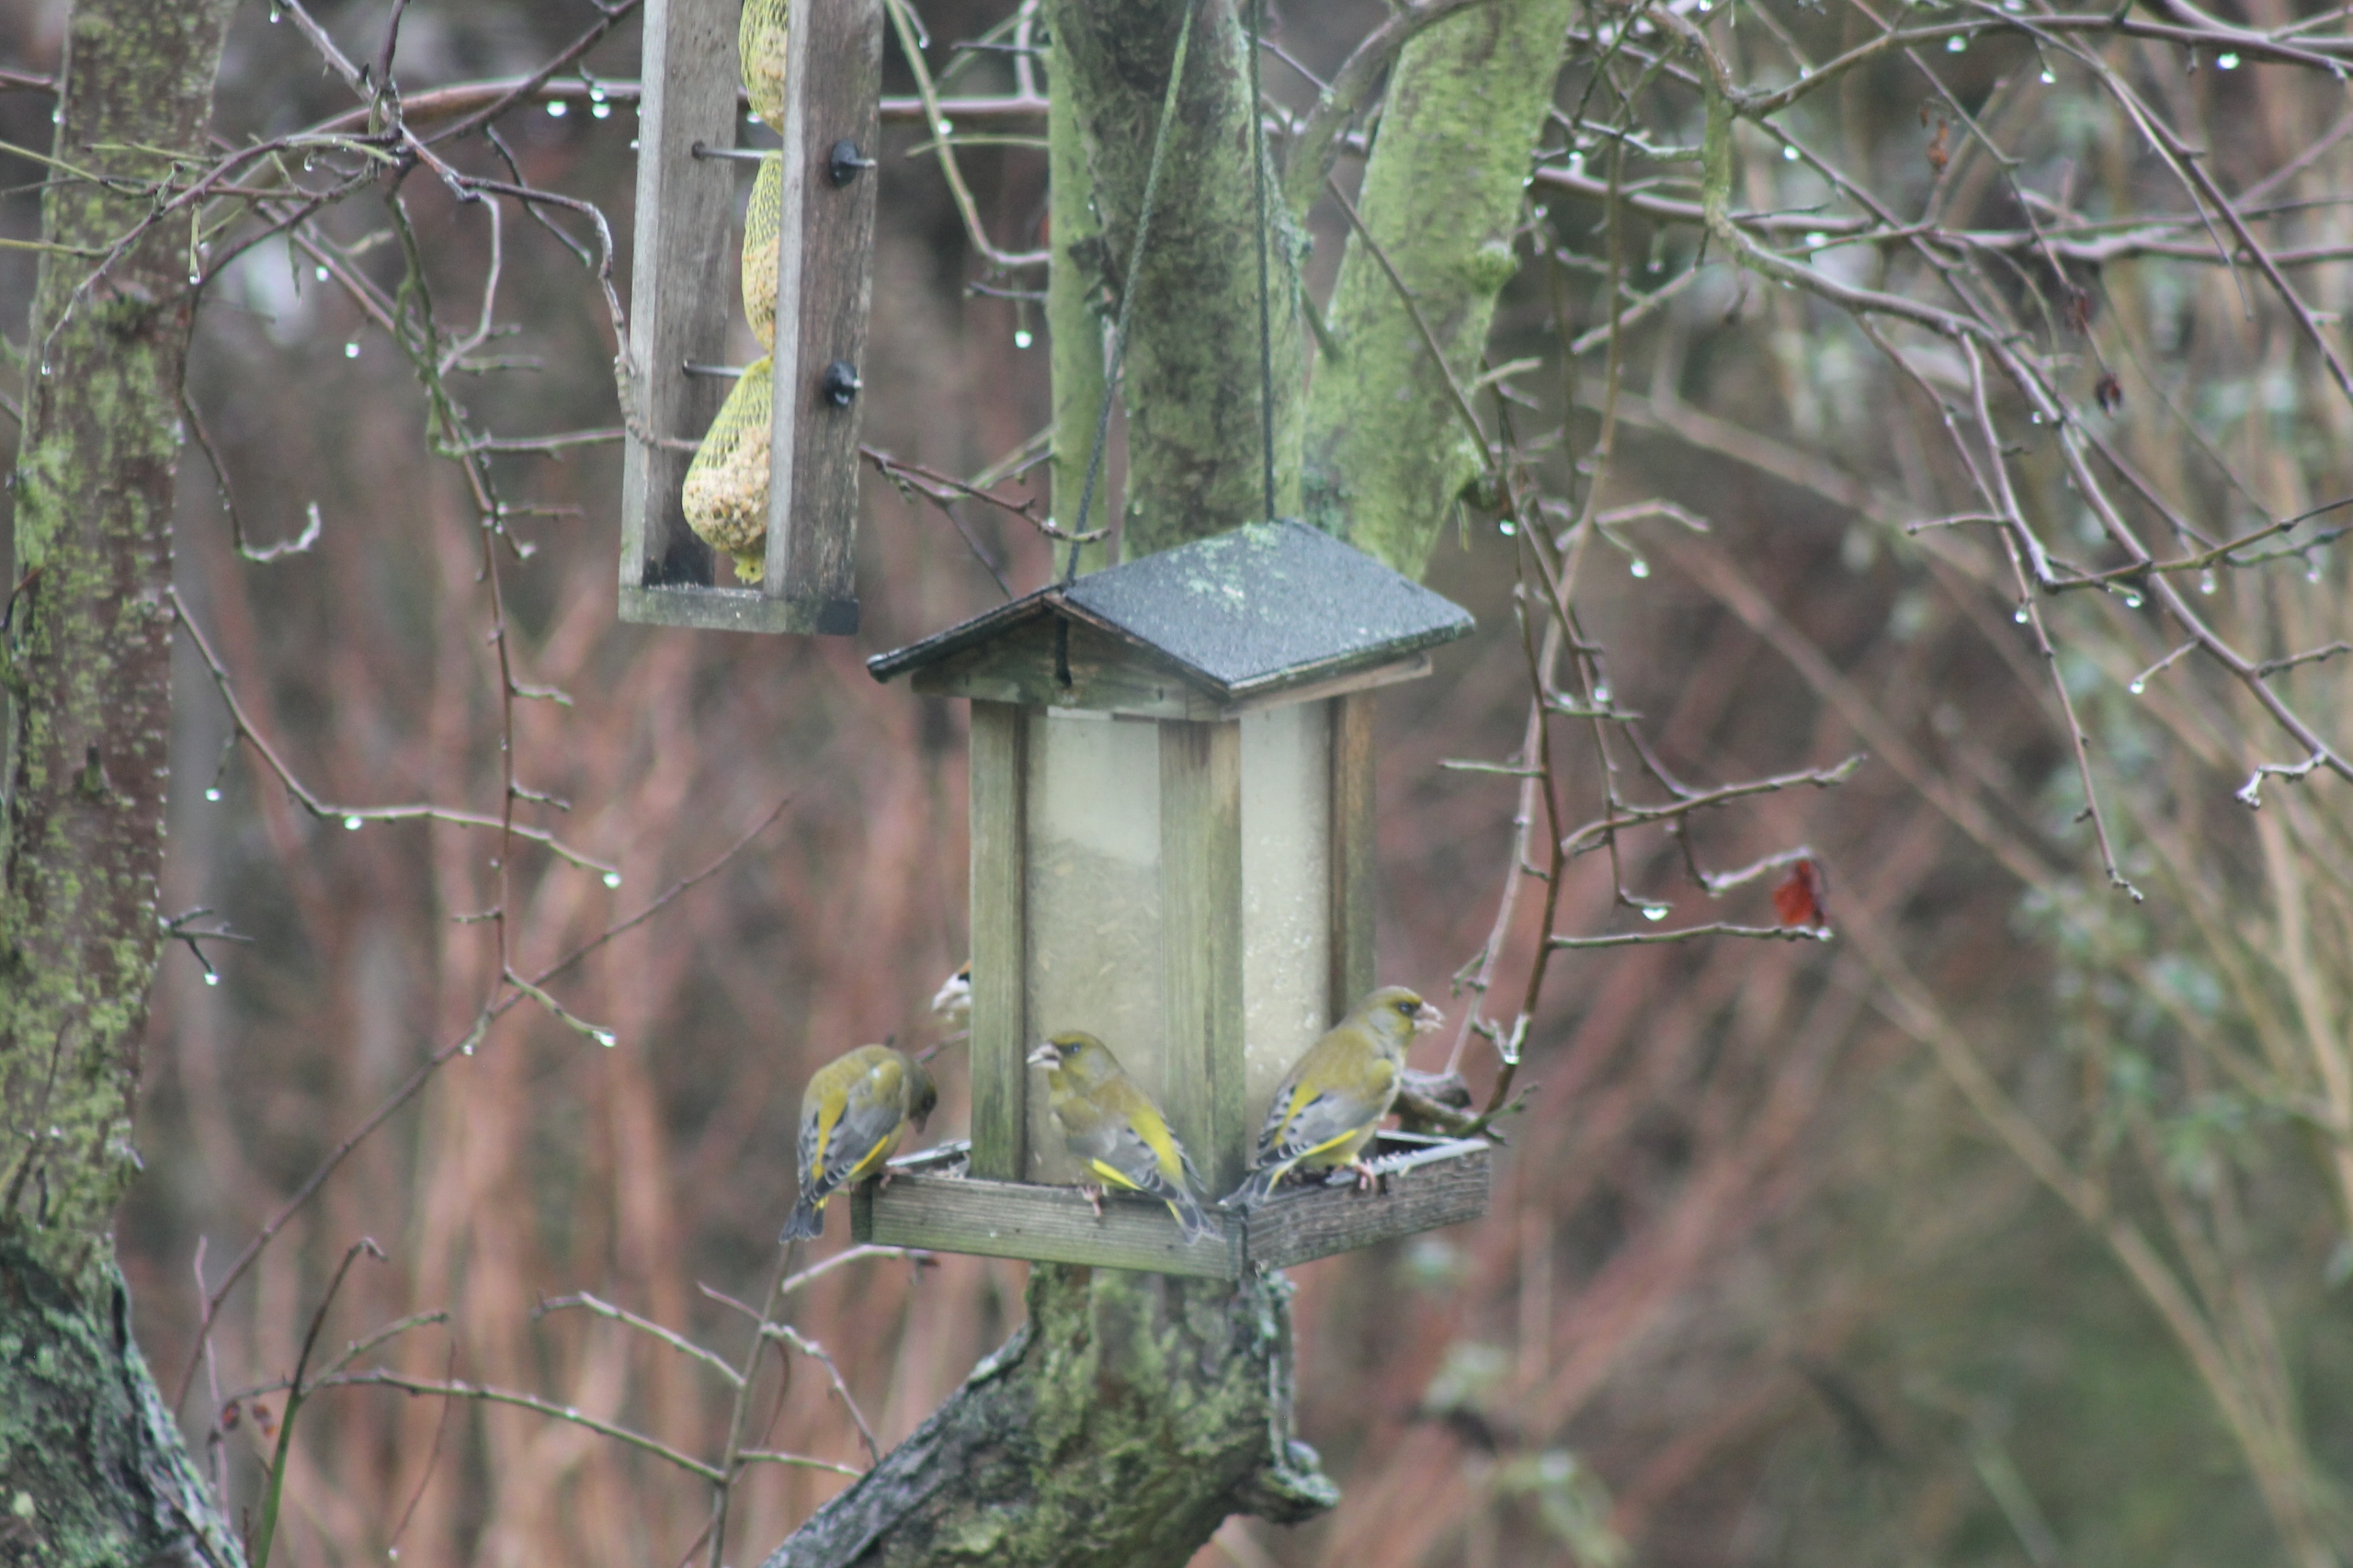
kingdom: Plantae
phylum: Tracheophyta
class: Liliopsida
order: Poales
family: Poaceae
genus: Chloris
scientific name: Chloris chloris
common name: Grønirisk
